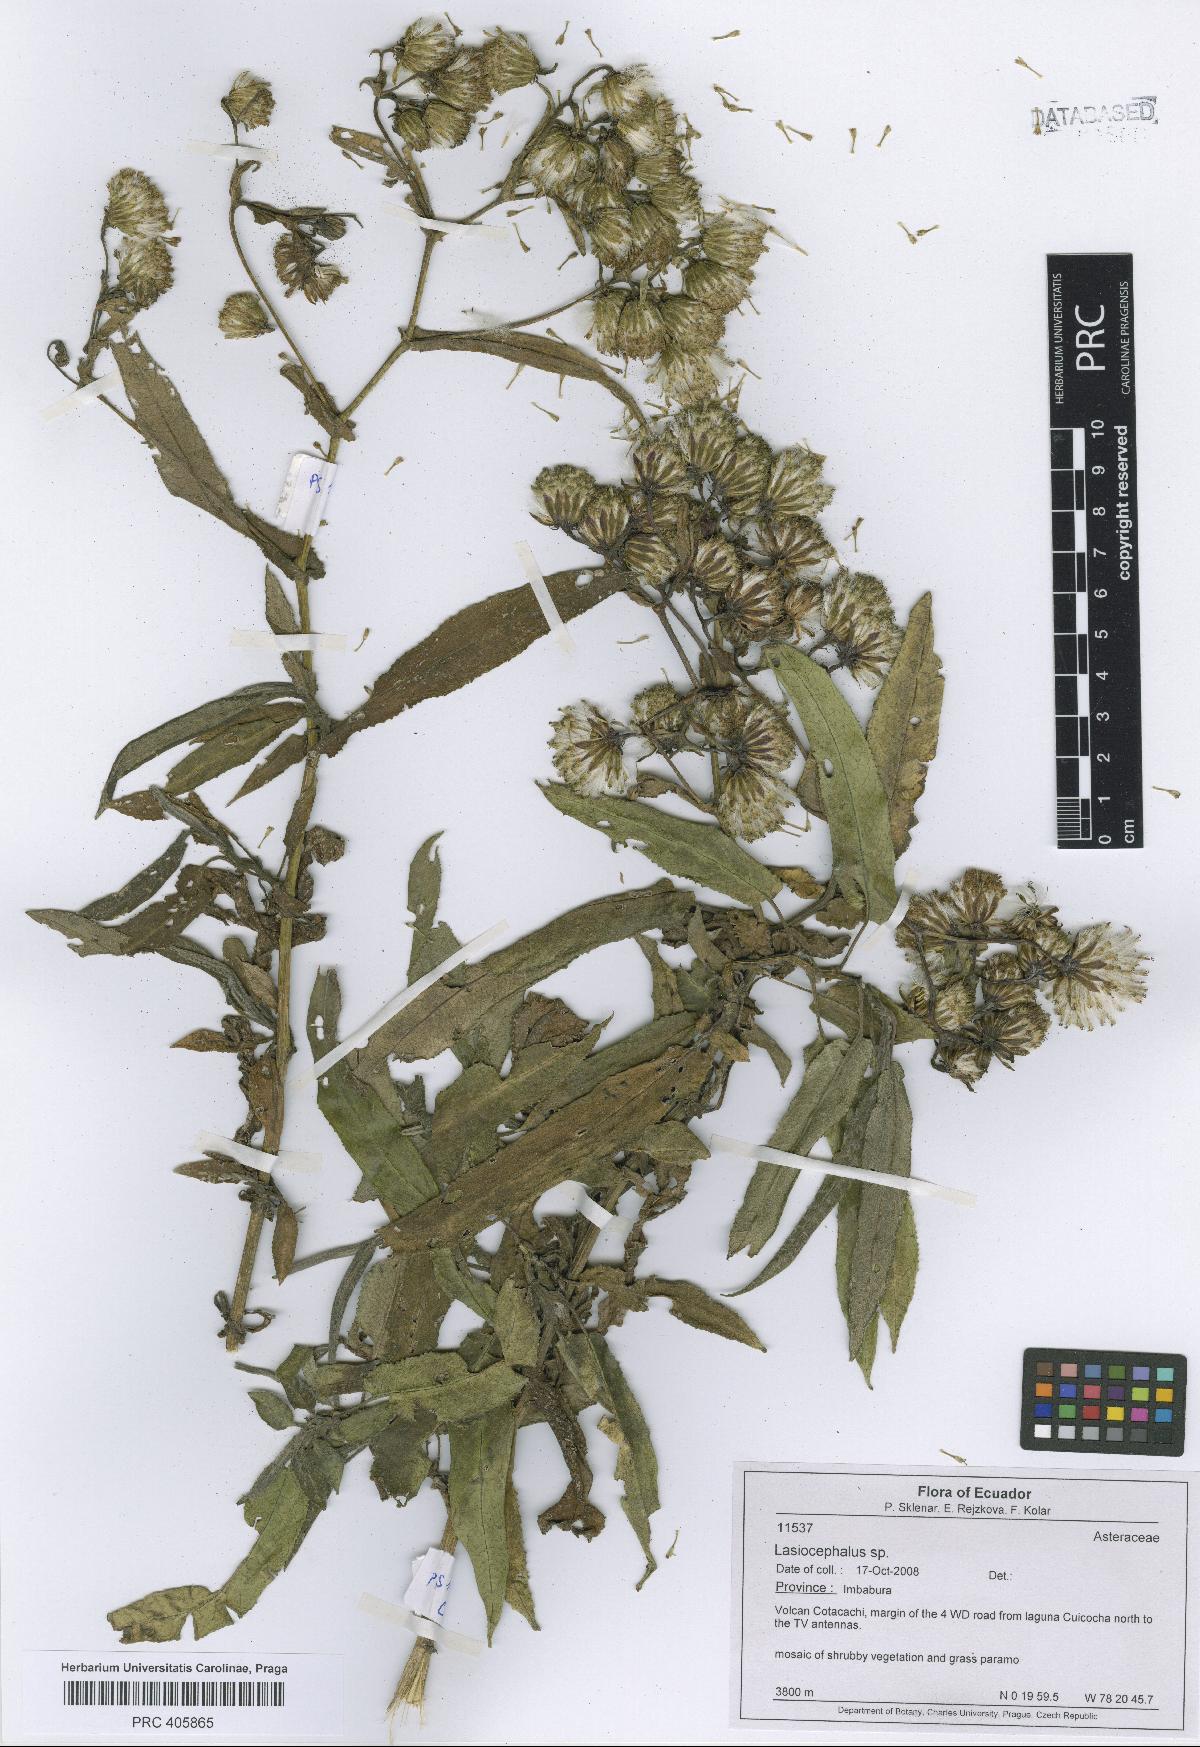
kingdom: Plantae
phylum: Tracheophyta
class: Magnoliopsida
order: Asterales
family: Asteraceae
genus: Lasiocephalus
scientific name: Lasiocephalus
